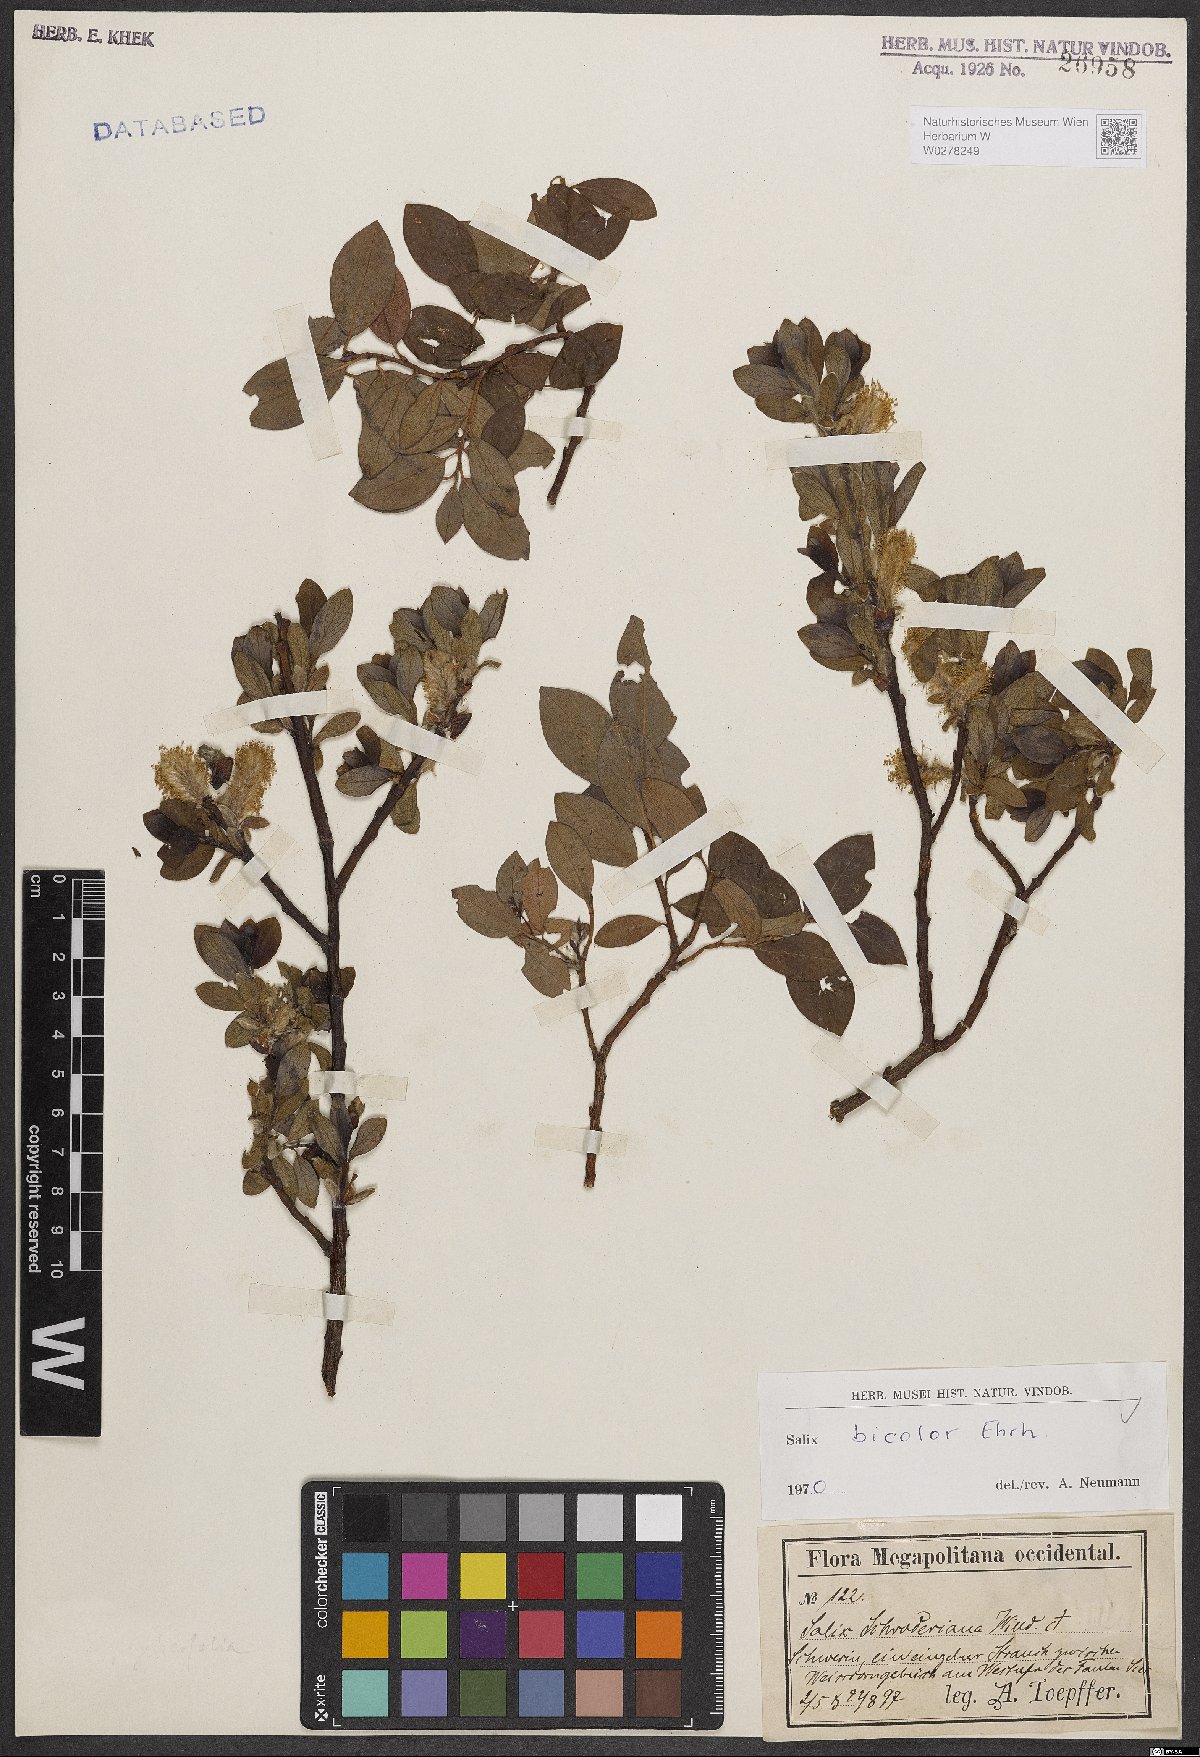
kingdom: Plantae
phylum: Tracheophyta
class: Magnoliopsida
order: Malpighiales
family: Salicaceae
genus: Salix
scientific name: Salix bicolor
